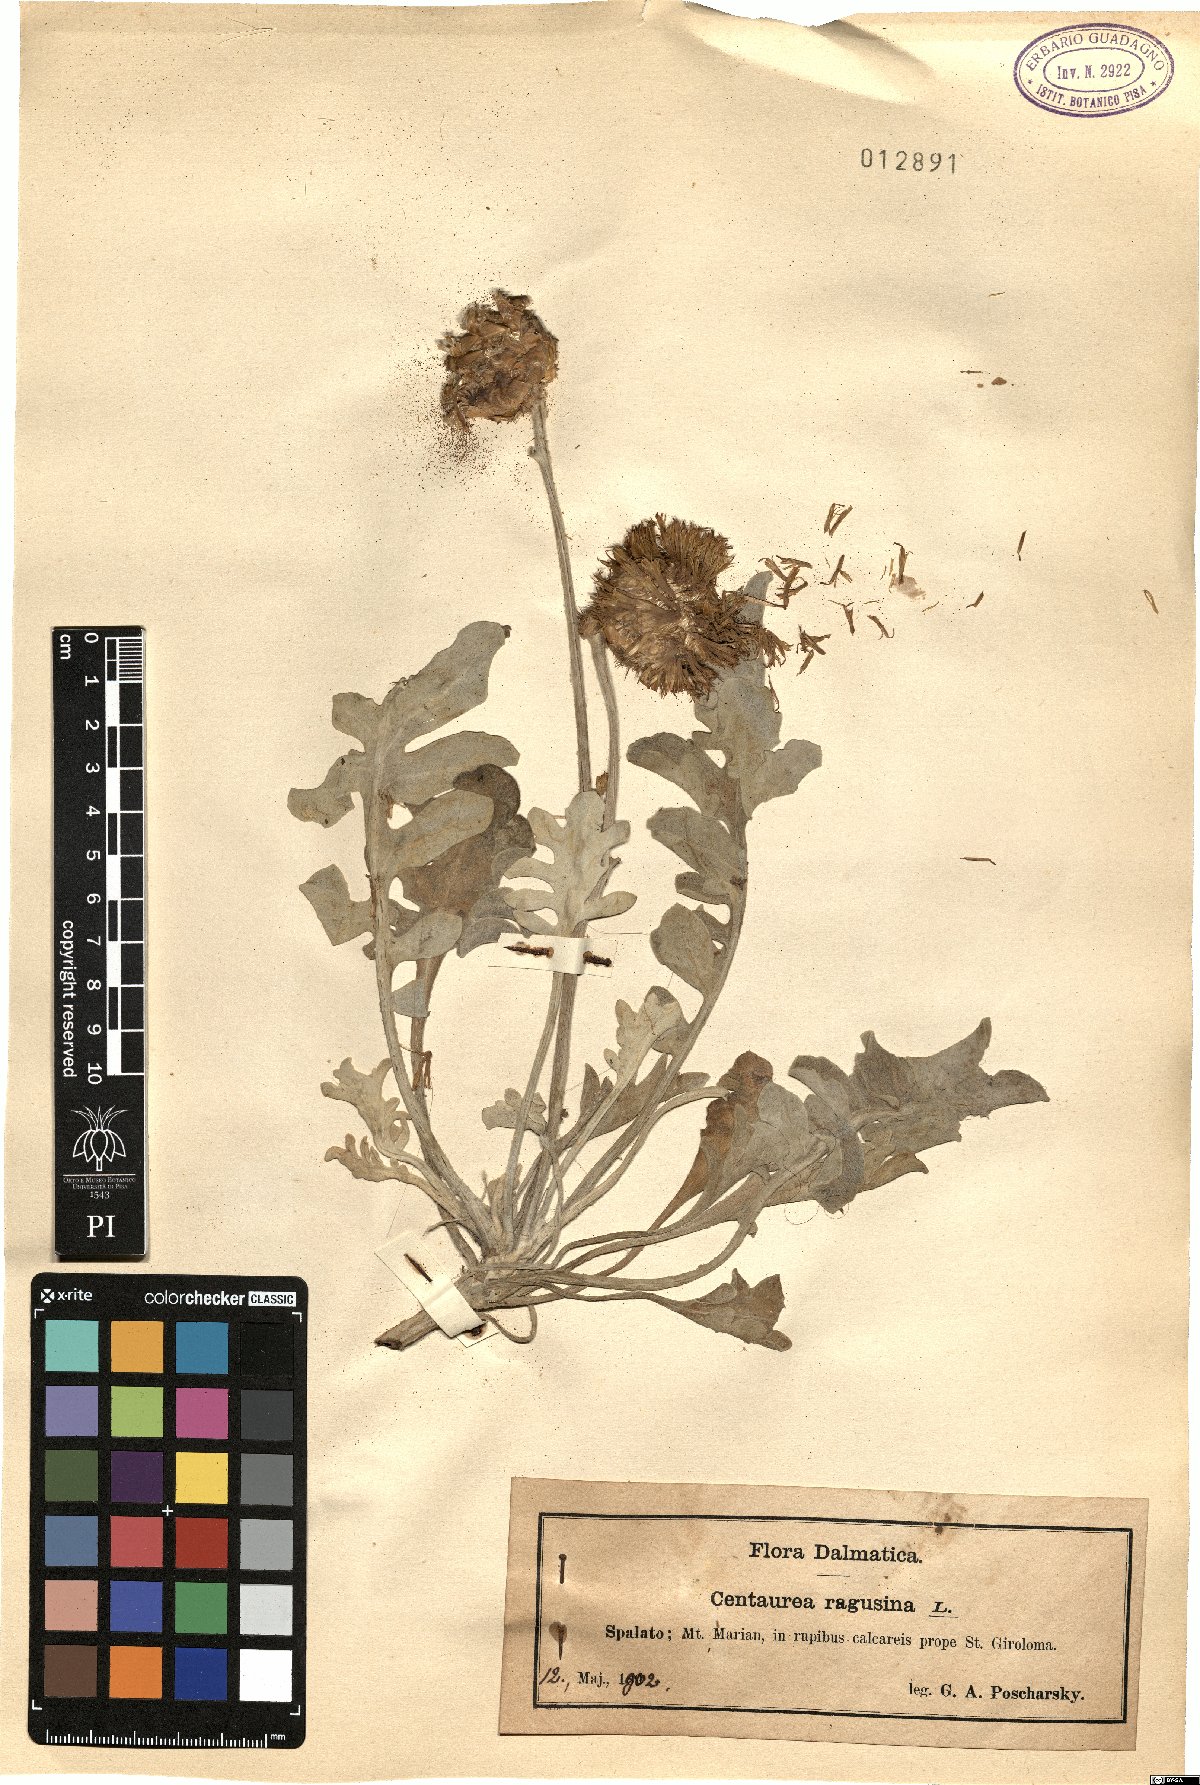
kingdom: Plantae
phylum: Tracheophyta
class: Magnoliopsida
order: Asterales
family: Asteraceae
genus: Centaurea
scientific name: Centaurea ragusina
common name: Dusty-miller
